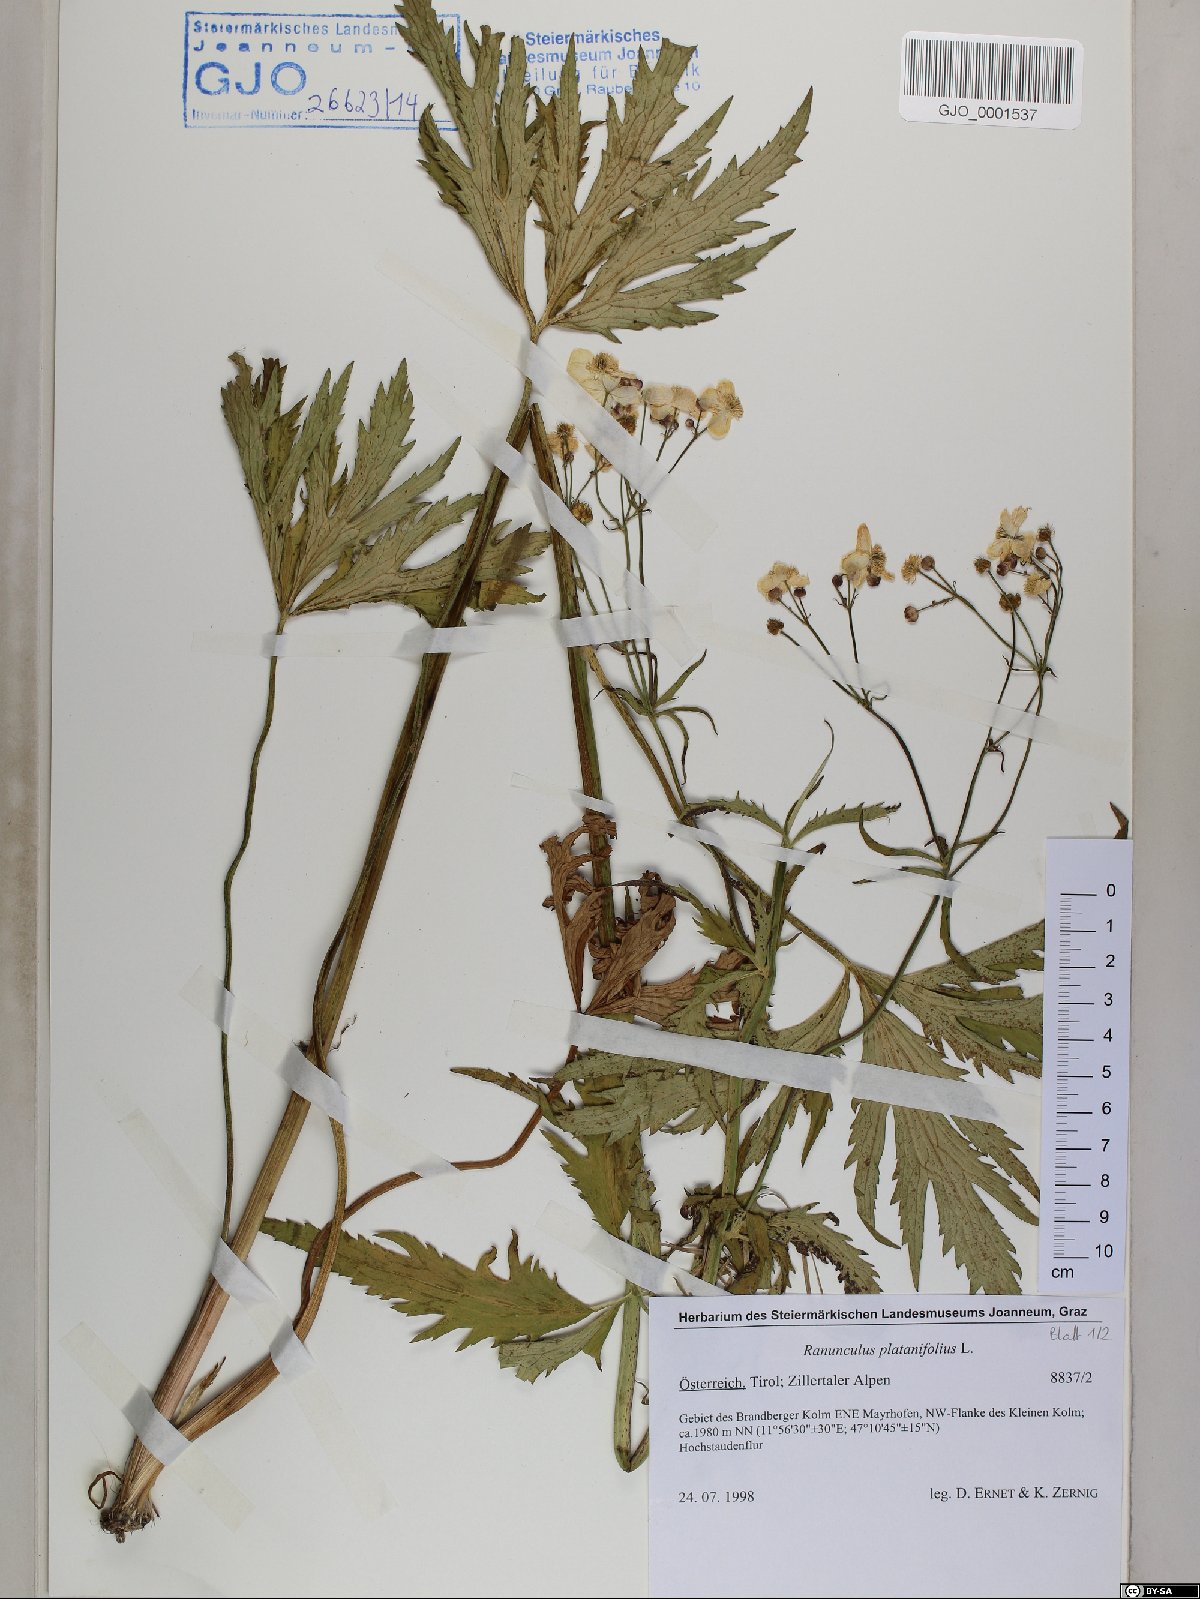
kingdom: Plantae
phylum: Tracheophyta
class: Magnoliopsida
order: Ranunculales
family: Ranunculaceae
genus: Ranunculus
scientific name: Ranunculus platanifolius
